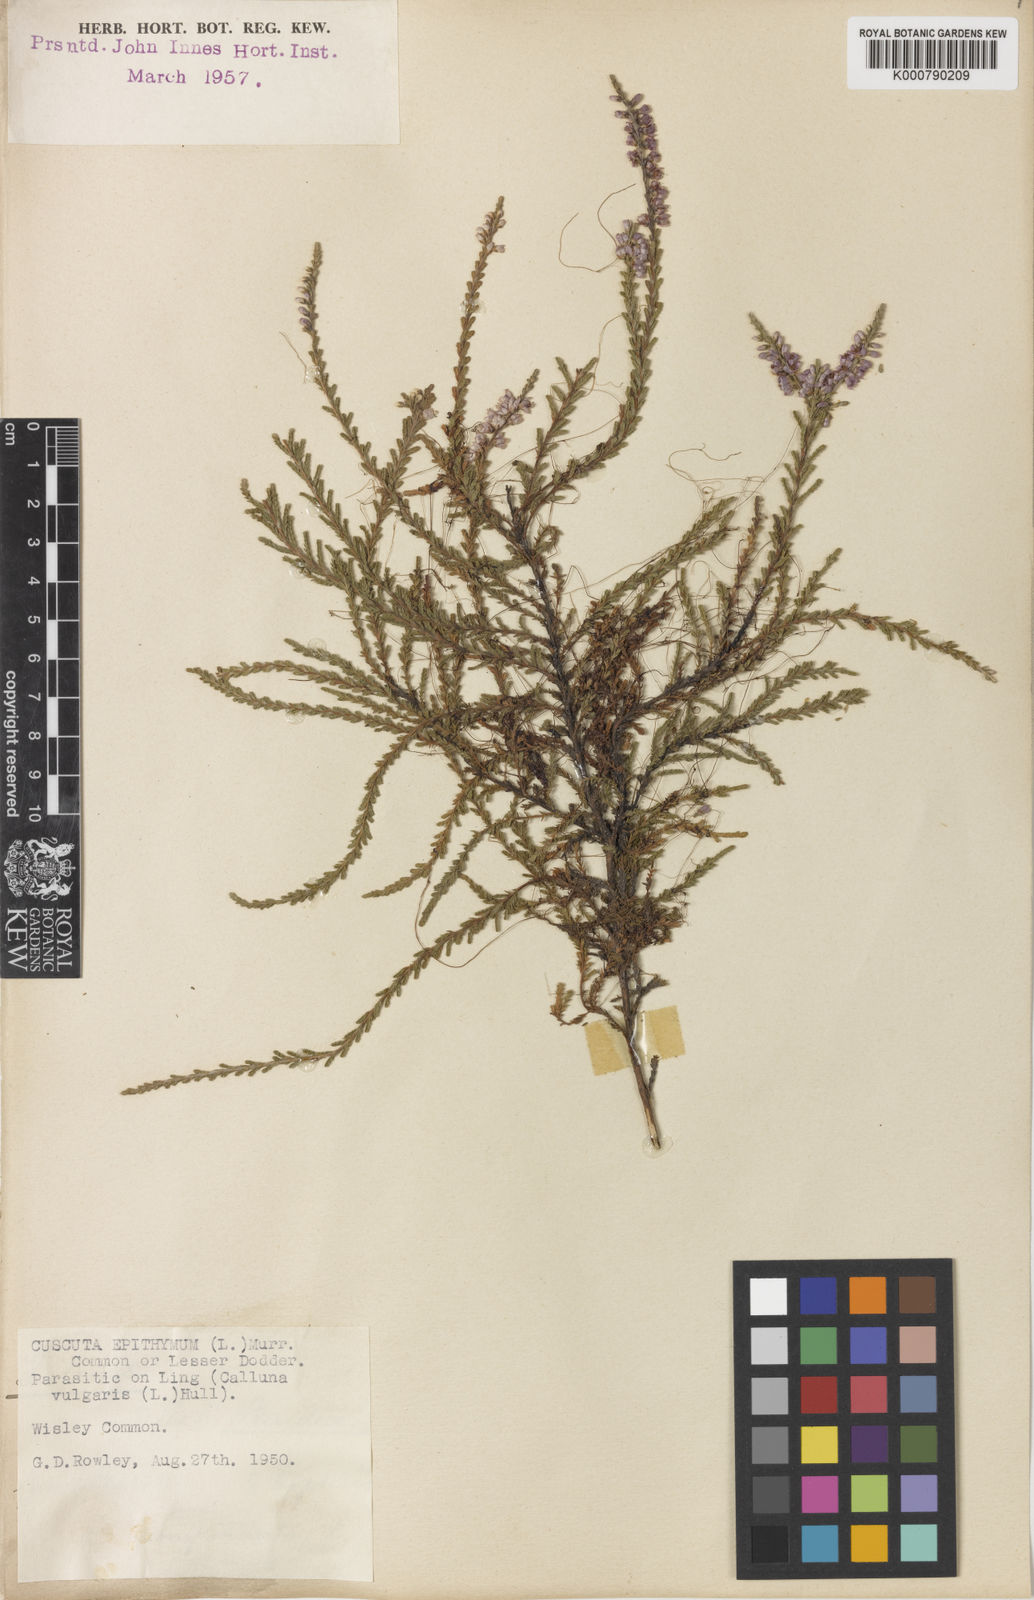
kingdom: Plantae
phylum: Tracheophyta
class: Magnoliopsida
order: Solanales
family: Convolvulaceae
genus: Cuscuta
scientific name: Cuscuta epithymum
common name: Clover dodder
